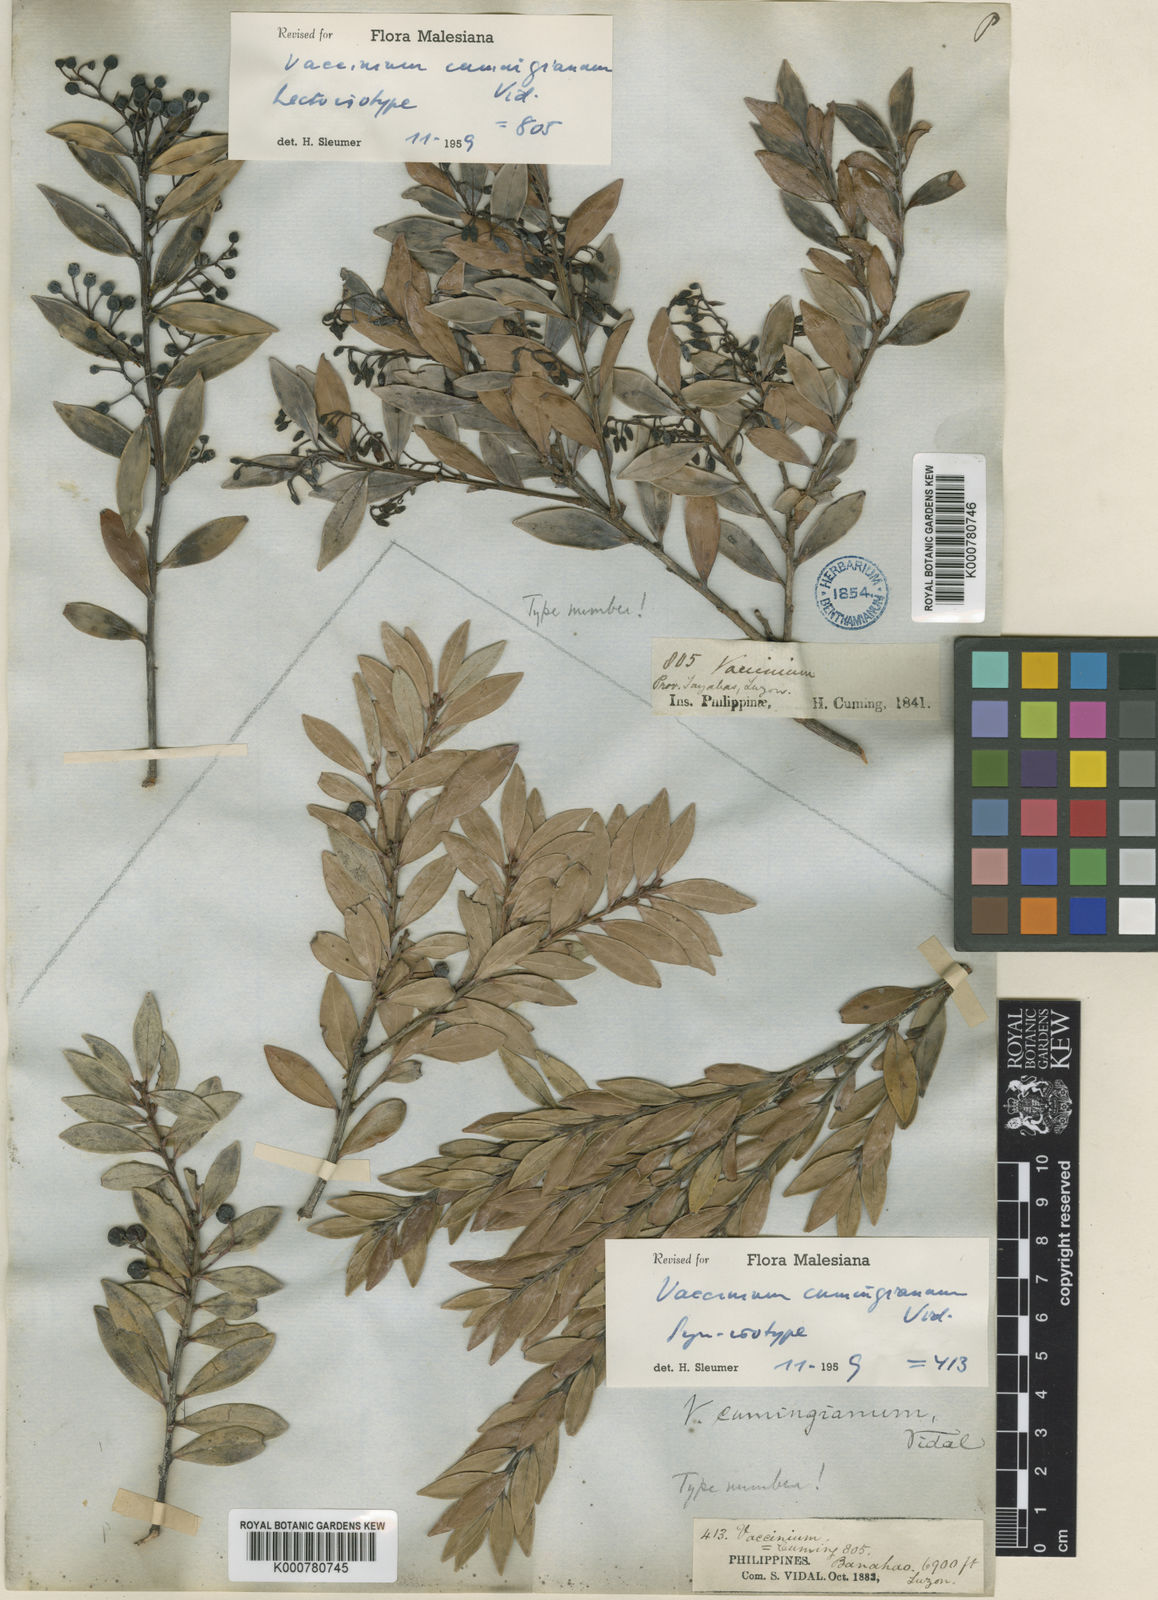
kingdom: Plantae
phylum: Tracheophyta
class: Magnoliopsida
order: Ericales
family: Ericaceae
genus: Vaccinium
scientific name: Vaccinium cumingianum
